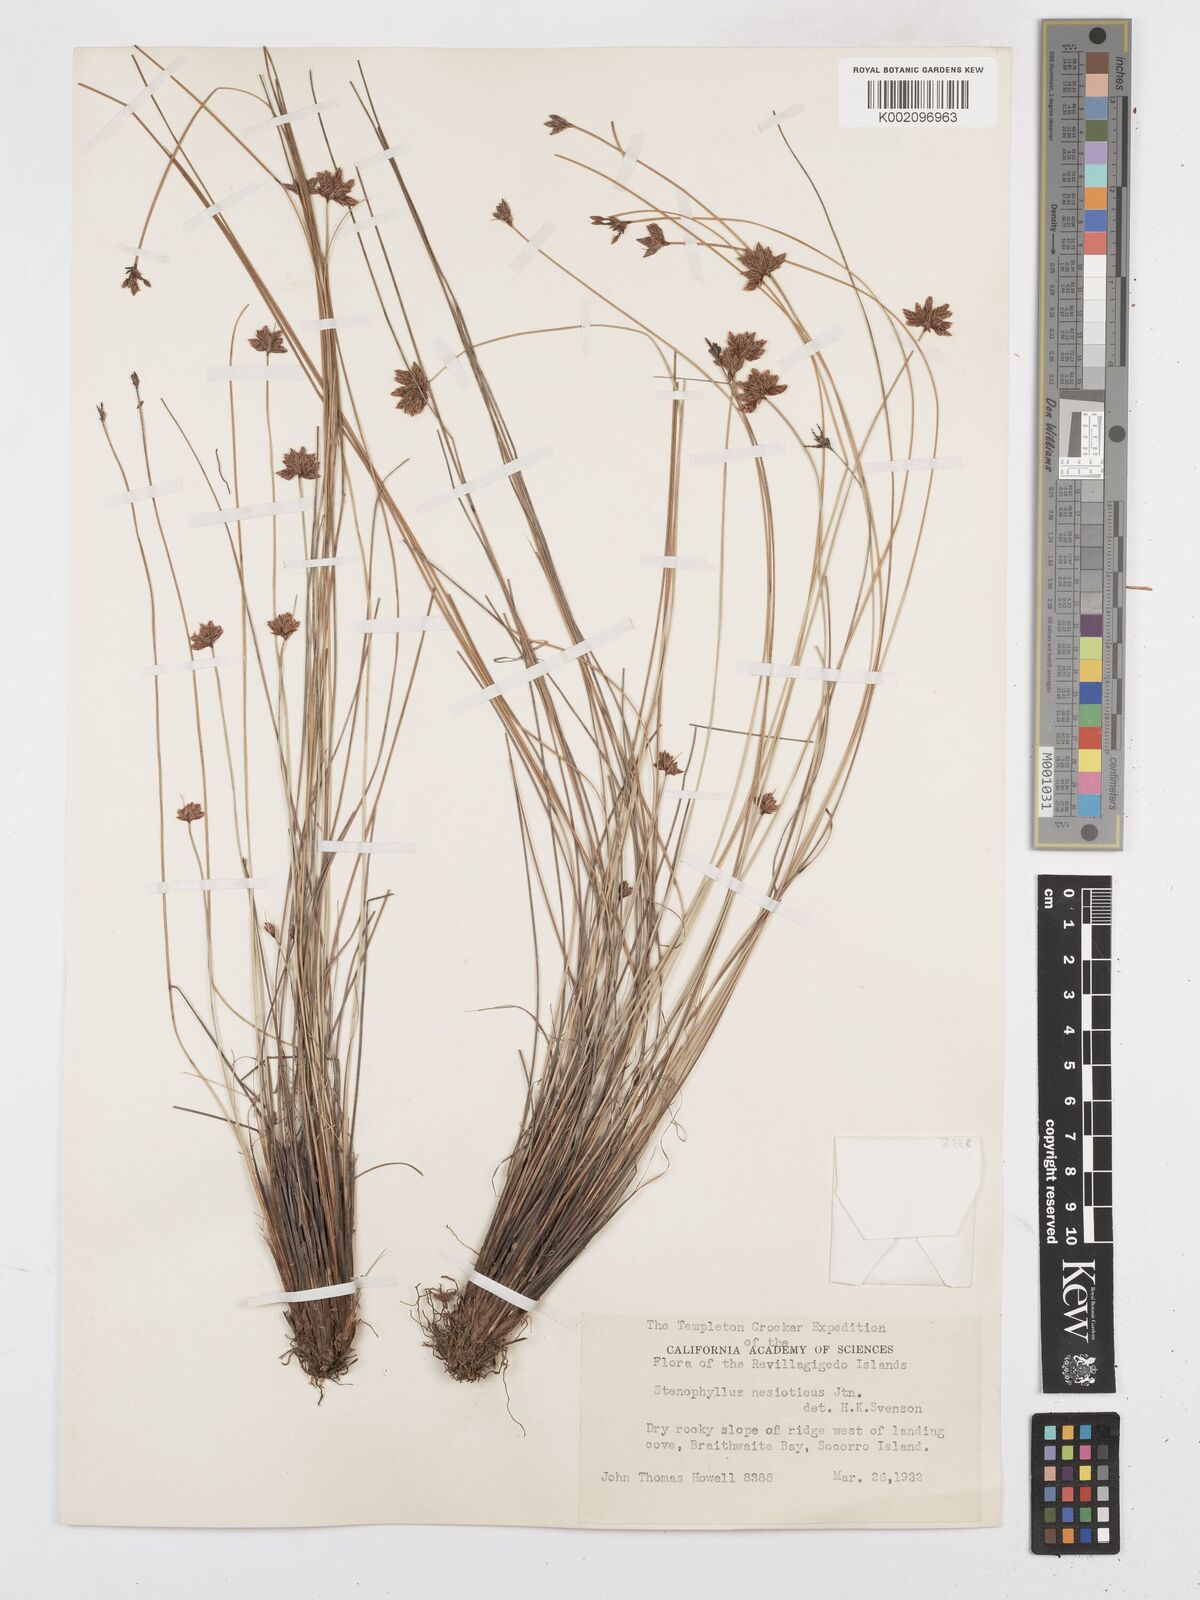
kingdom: Plantae
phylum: Tracheophyta
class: Liliopsida
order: Poales
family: Cyperaceae
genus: Bulbostylis
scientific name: Bulbostylis nesiotica
